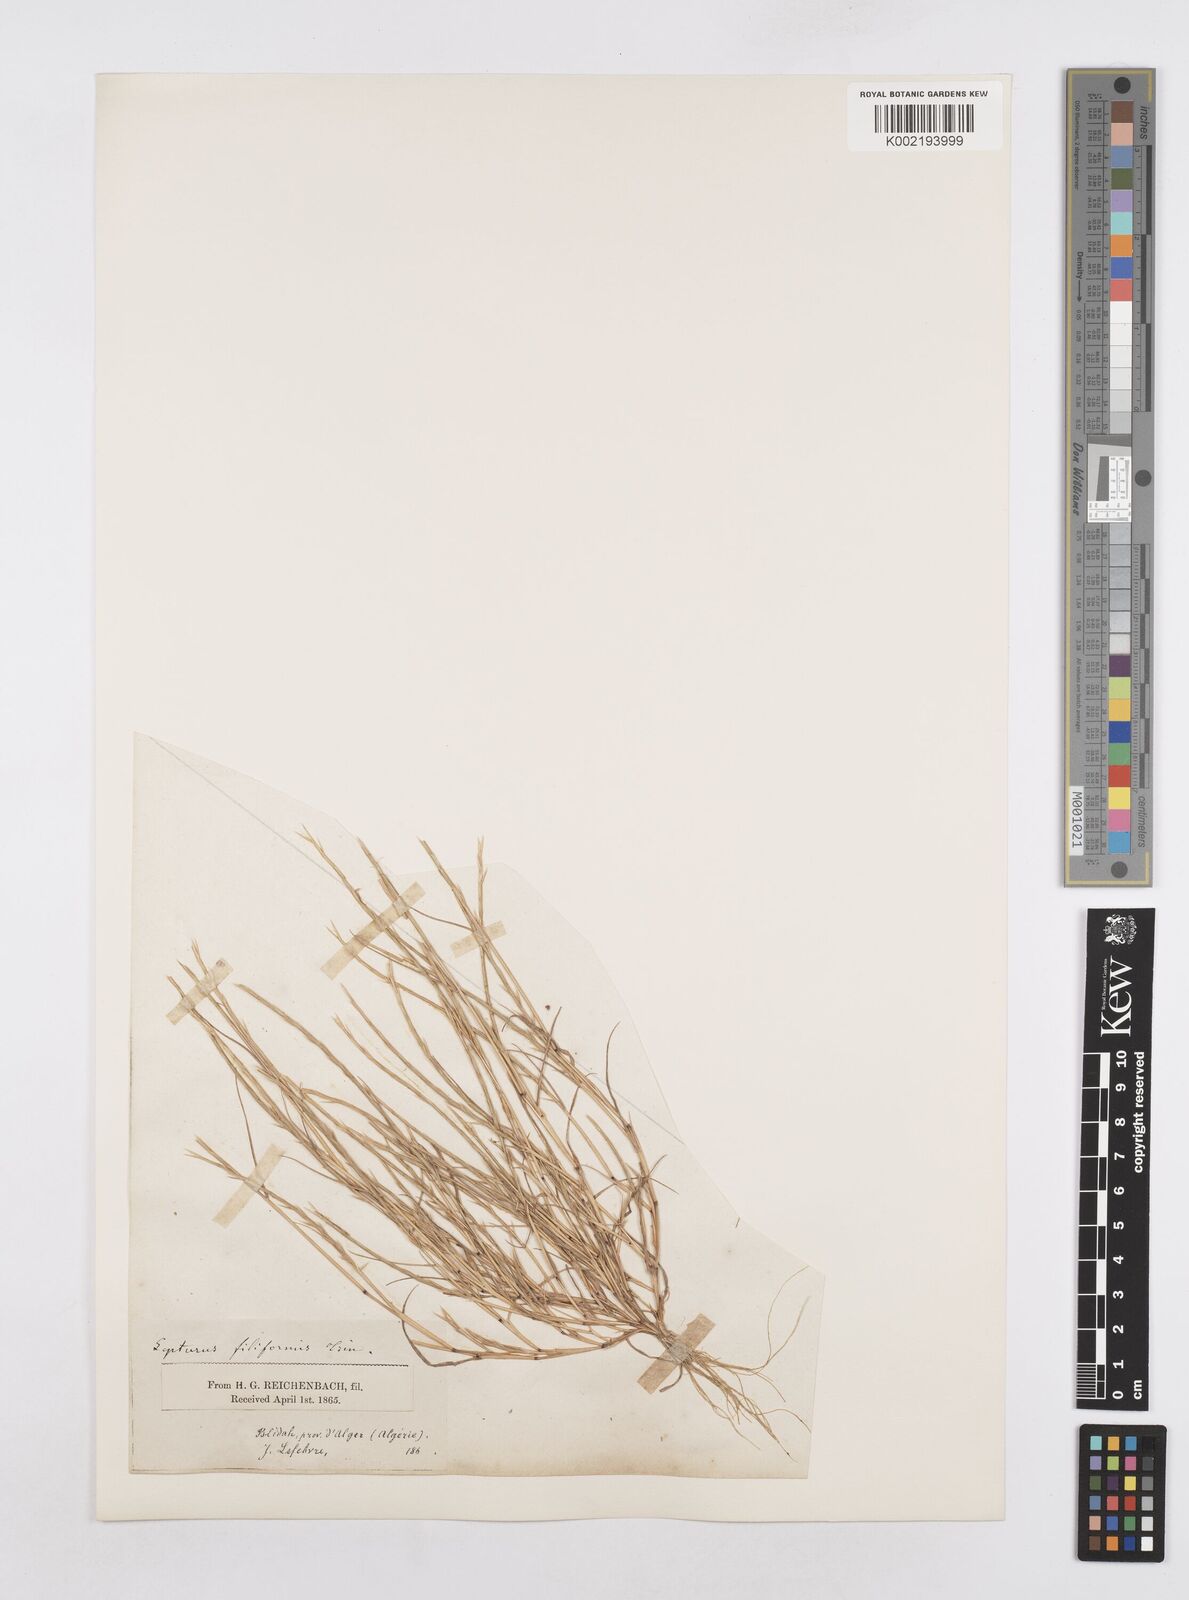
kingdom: Plantae
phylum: Tracheophyta
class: Liliopsida
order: Poales
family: Poaceae
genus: Parapholis
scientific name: Parapholis filiformis
